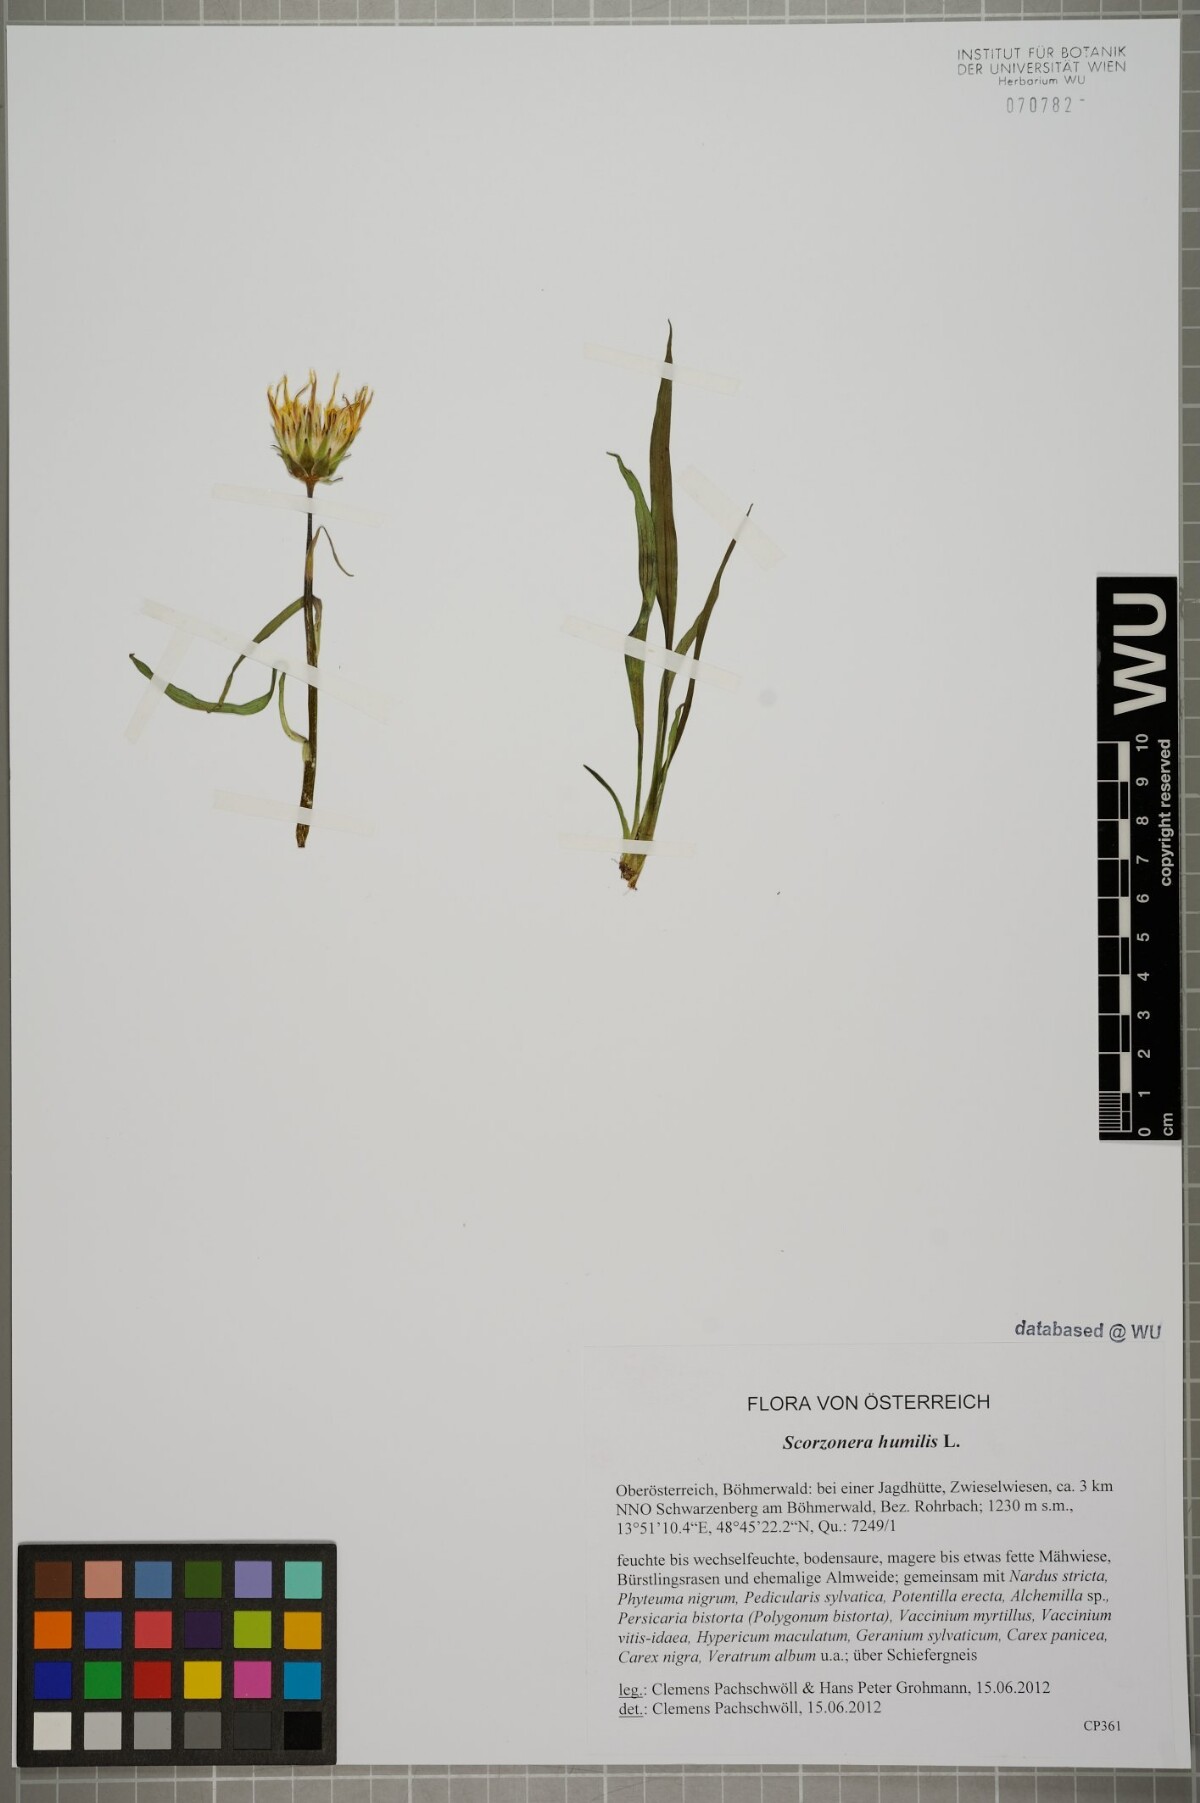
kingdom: Plantae
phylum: Tracheophyta
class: Magnoliopsida
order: Asterales
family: Asteraceae
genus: Scorzonera
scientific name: Scorzonera humilis
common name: Viper's-grass
